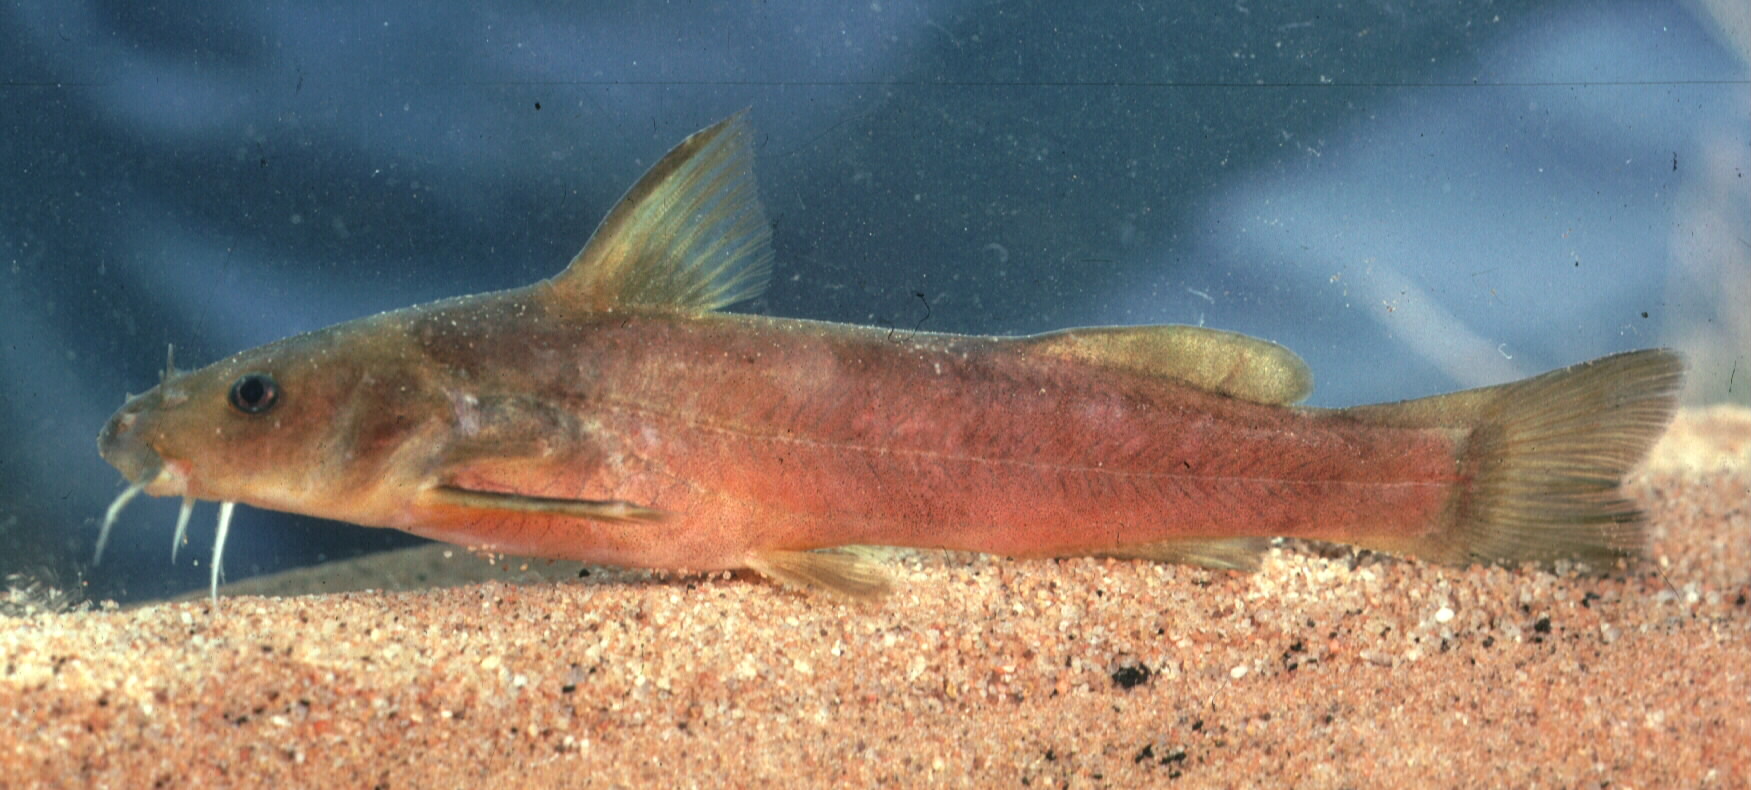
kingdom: Animalia
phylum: Chordata
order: Siluriformes
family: Austroglanididae
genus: Austroglanis
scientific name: Austroglanis barnardi
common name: Barnard's rock-catfish
